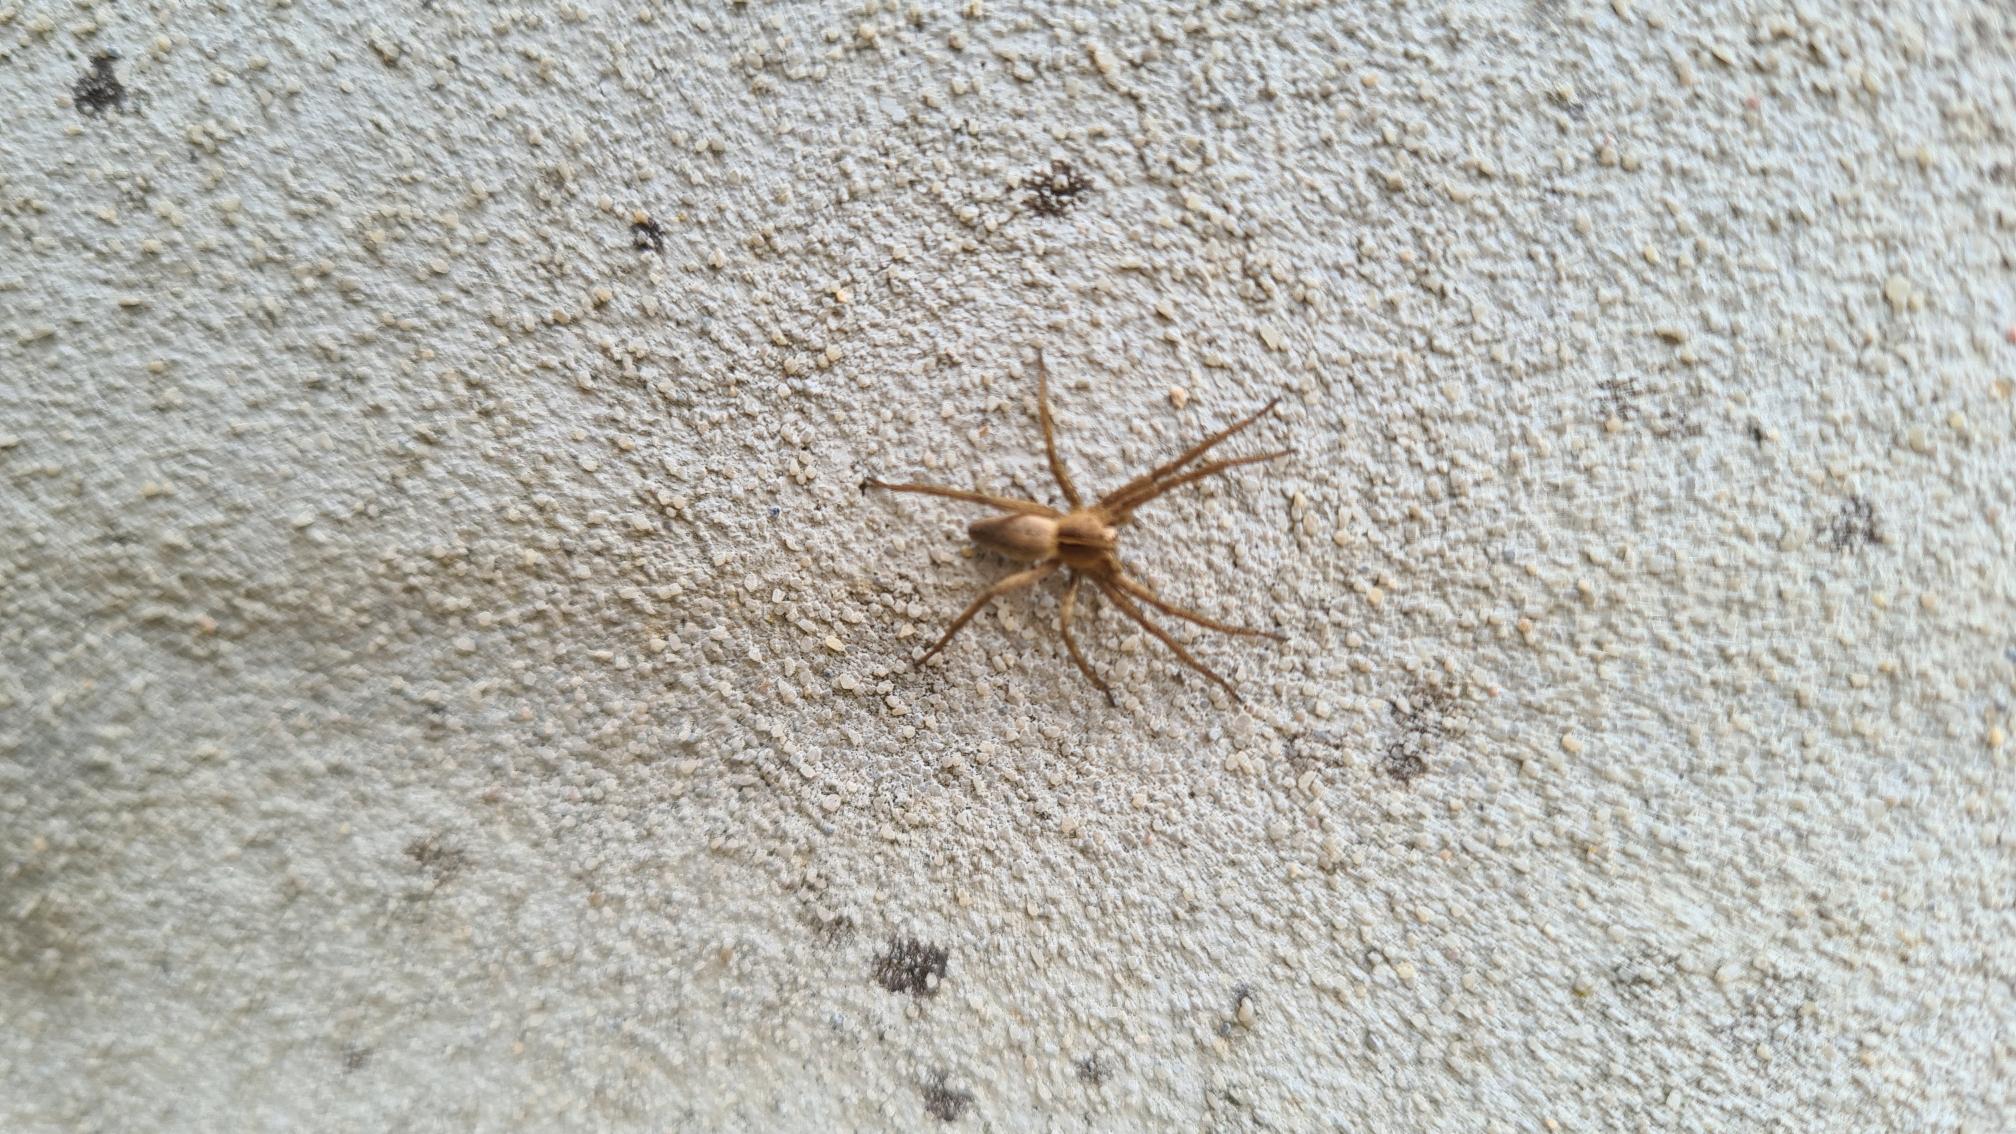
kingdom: Animalia
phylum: Arthropoda
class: Arachnida
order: Araneae
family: Pisauridae
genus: Pisaura
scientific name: Pisaura mirabilis
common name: Almindelig rovedderkop
